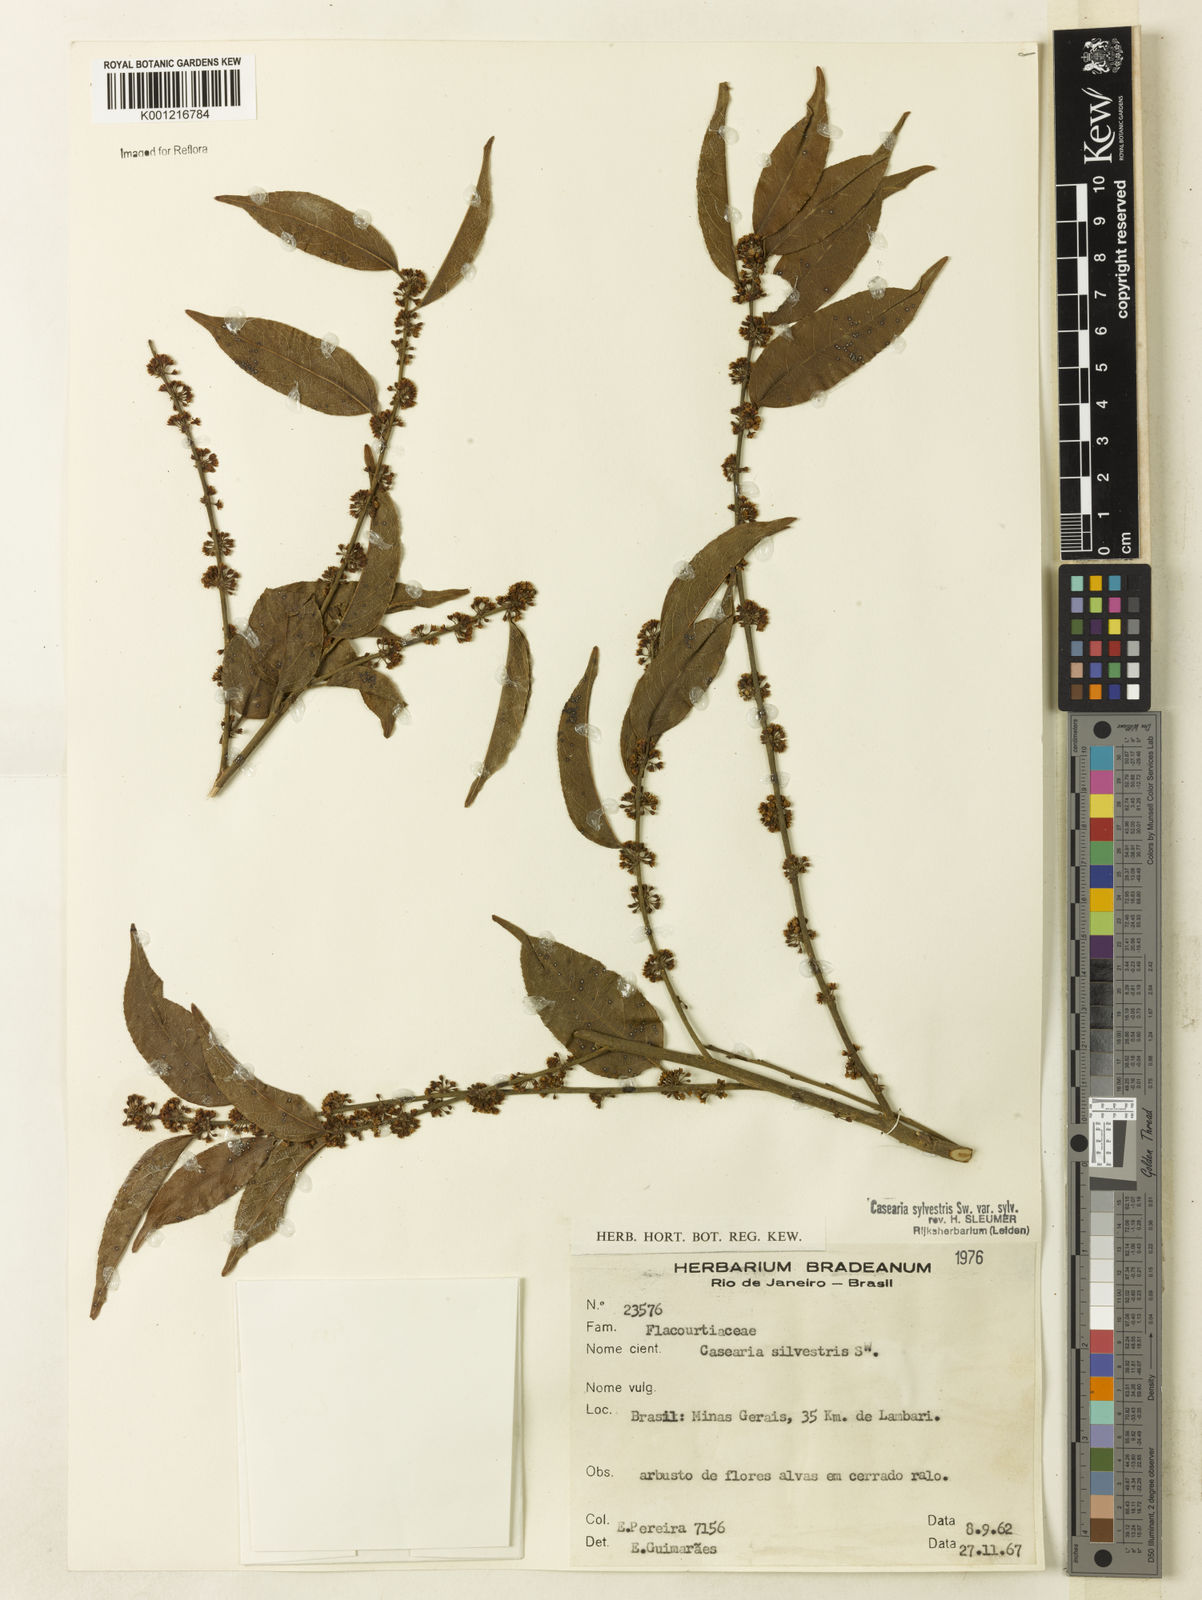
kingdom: Plantae
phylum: Tracheophyta
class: Magnoliopsida
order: Malpighiales
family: Salicaceae
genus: Casearia
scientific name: Casearia sylvestris
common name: Wild sage
